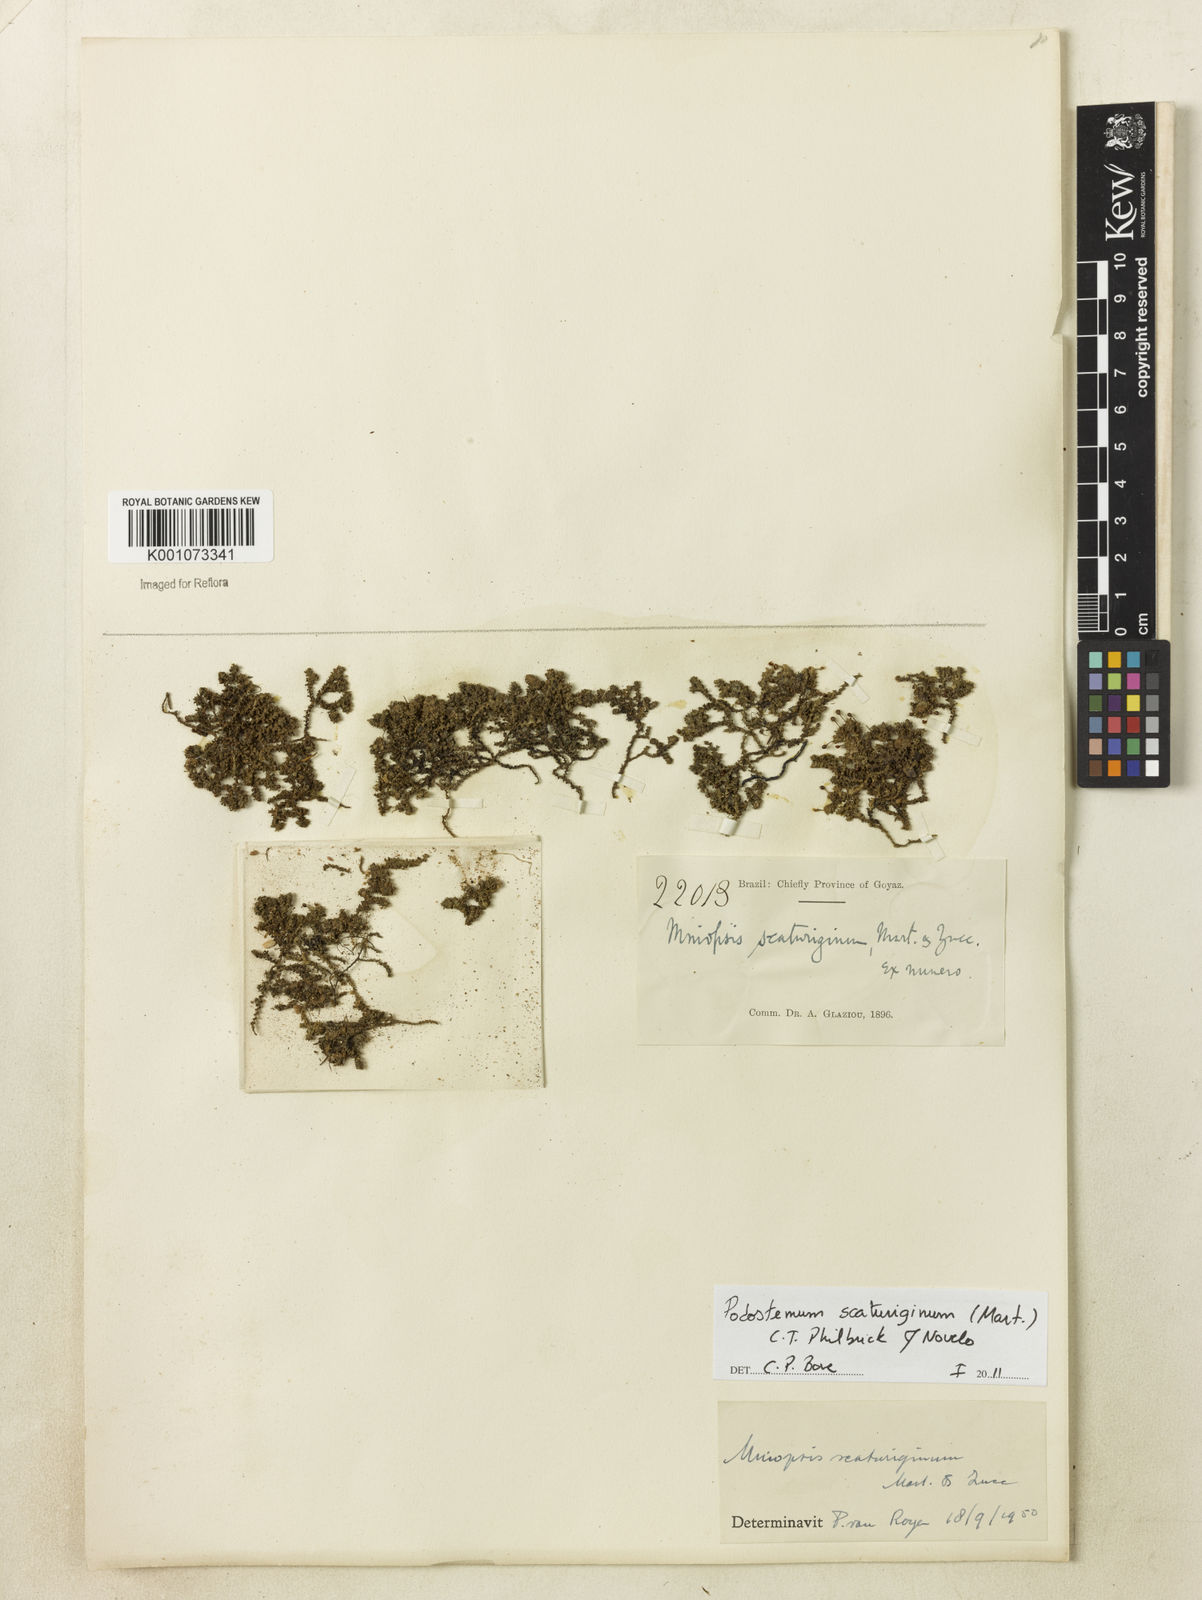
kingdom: Plantae
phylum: Tracheophyta
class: Magnoliopsida
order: Malpighiales
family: Podostemaceae
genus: Podostemum
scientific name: Podostemum scaturiginum
